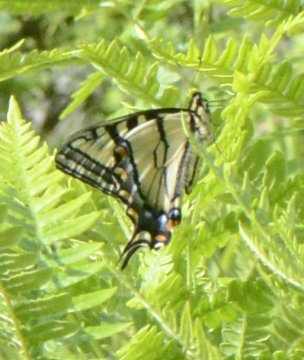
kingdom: Animalia
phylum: Arthropoda
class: Insecta
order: Lepidoptera
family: Papilionidae
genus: Pterourus
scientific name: Pterourus canadensis
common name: Canadian Tiger Swallowtail
